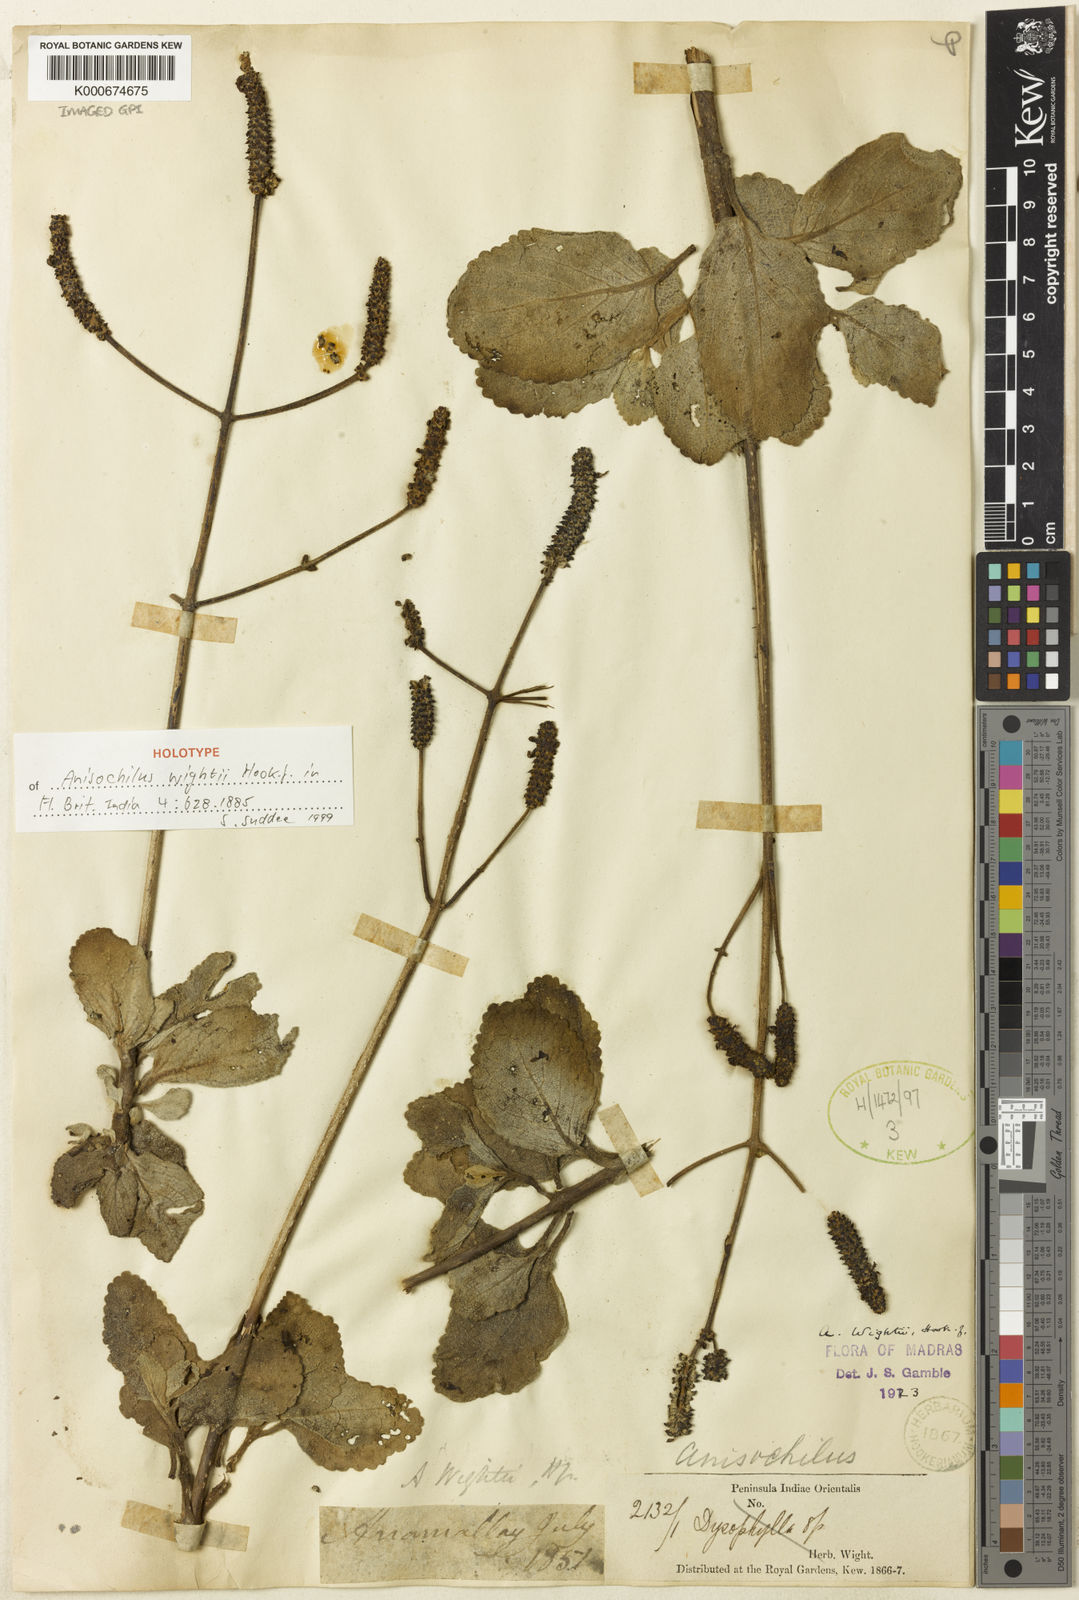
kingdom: Plantae
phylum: Tracheophyta
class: Magnoliopsida
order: Lamiales
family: Lamiaceae
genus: Coleus
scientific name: Coleus ater
